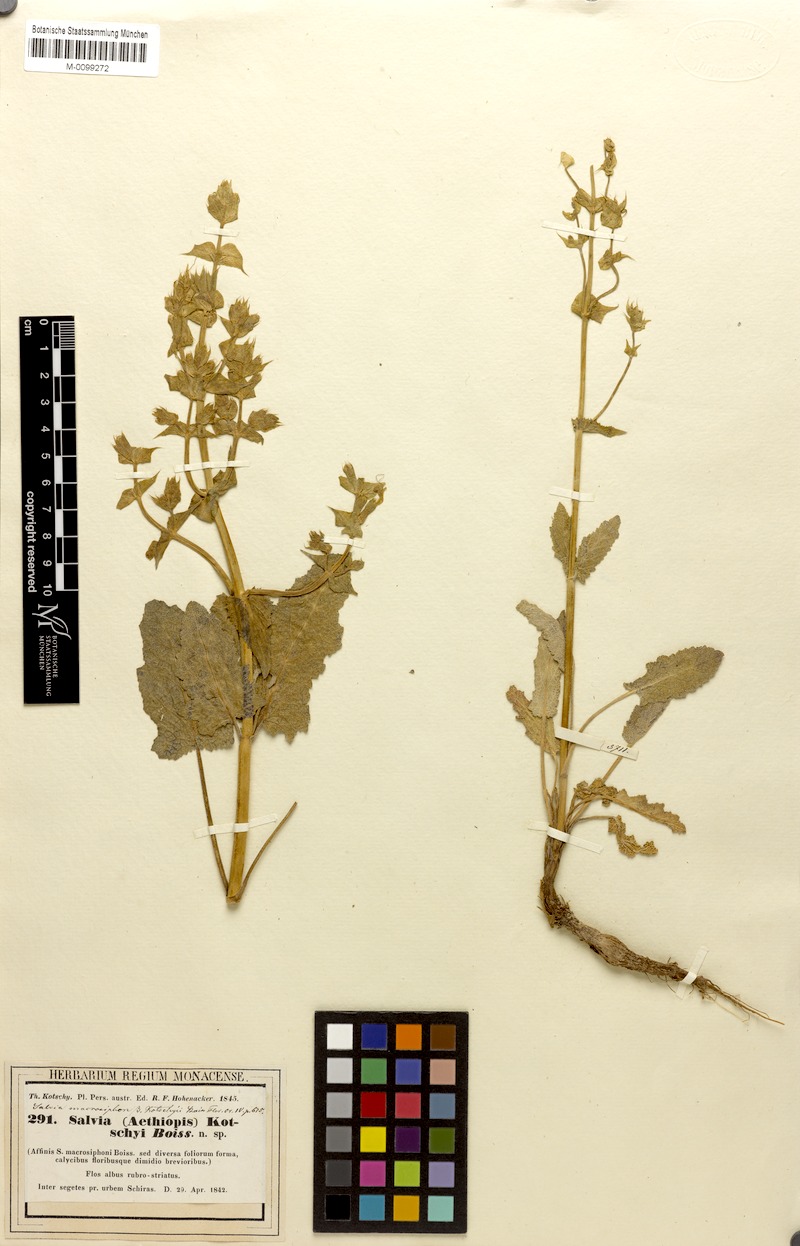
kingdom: Plantae
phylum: Tracheophyta
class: Magnoliopsida
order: Lamiales
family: Lamiaceae
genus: Salvia
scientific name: Salvia macrosiphon
